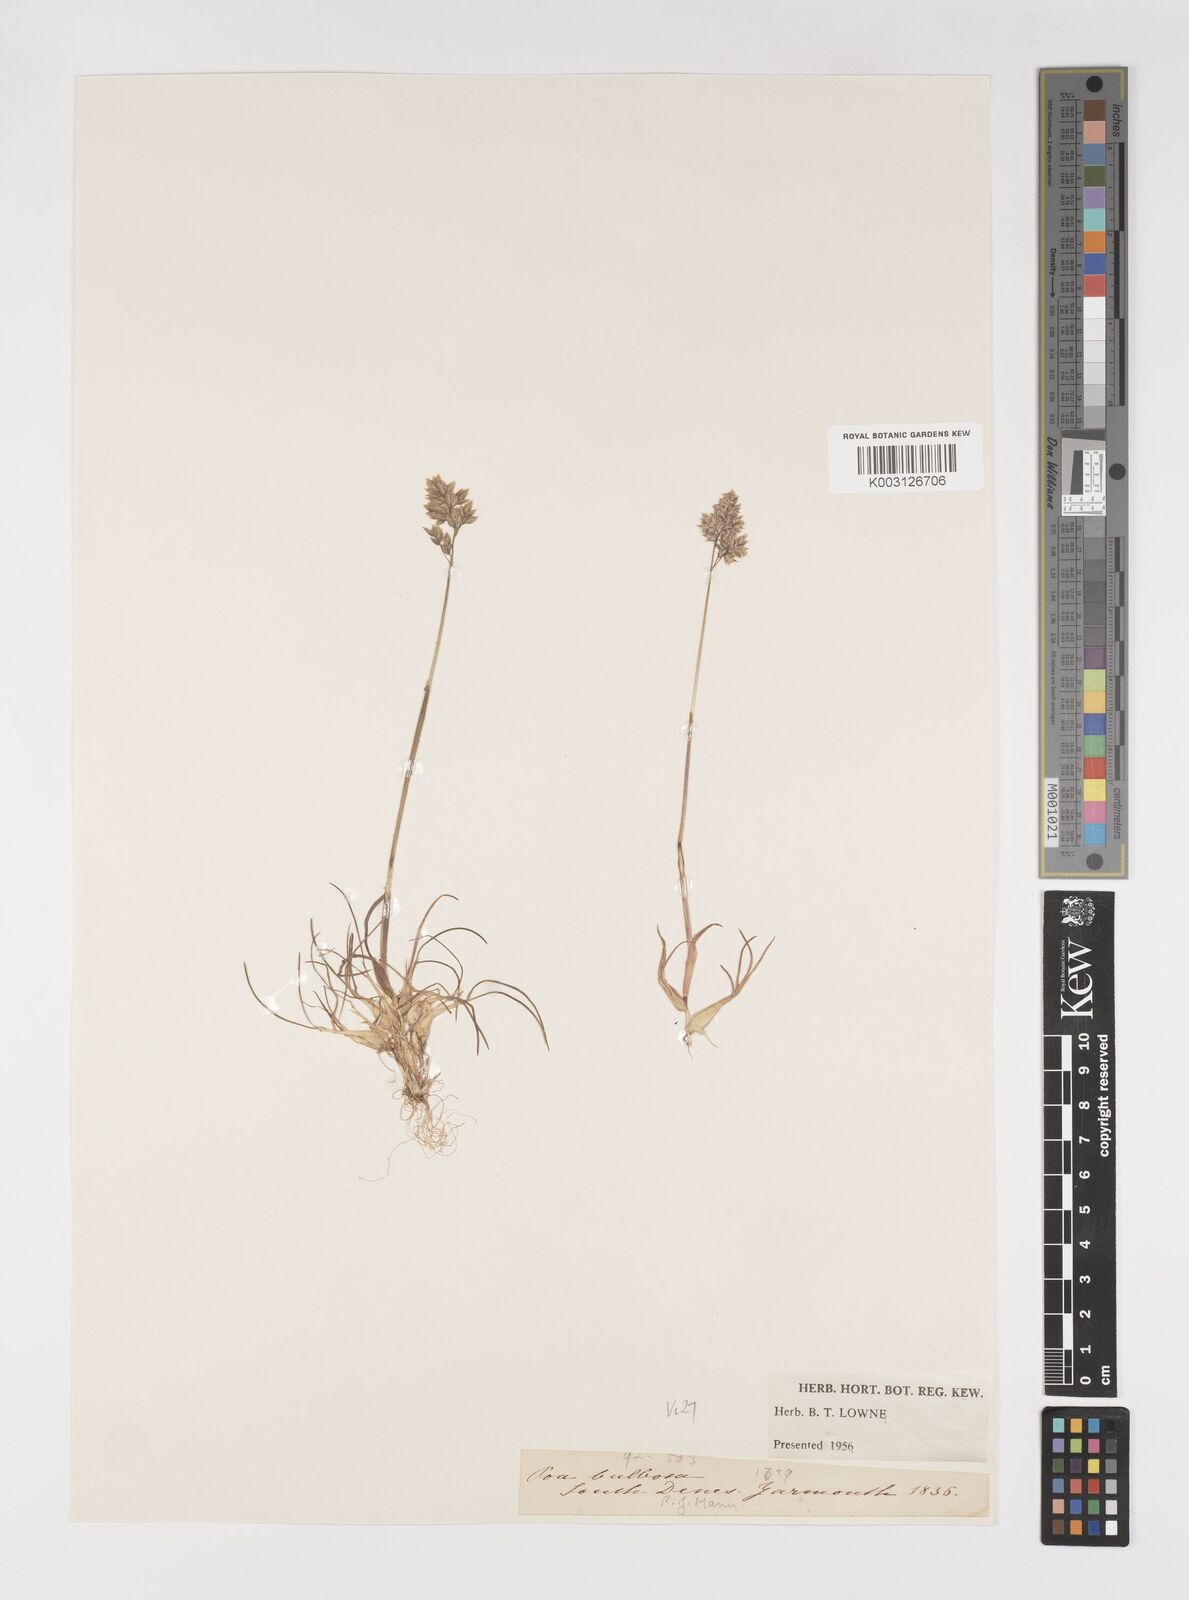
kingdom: Plantae
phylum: Tracheophyta
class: Liliopsida
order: Poales
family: Poaceae
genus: Poa
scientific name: Poa bulbosa
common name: Bulbous bluegrass
